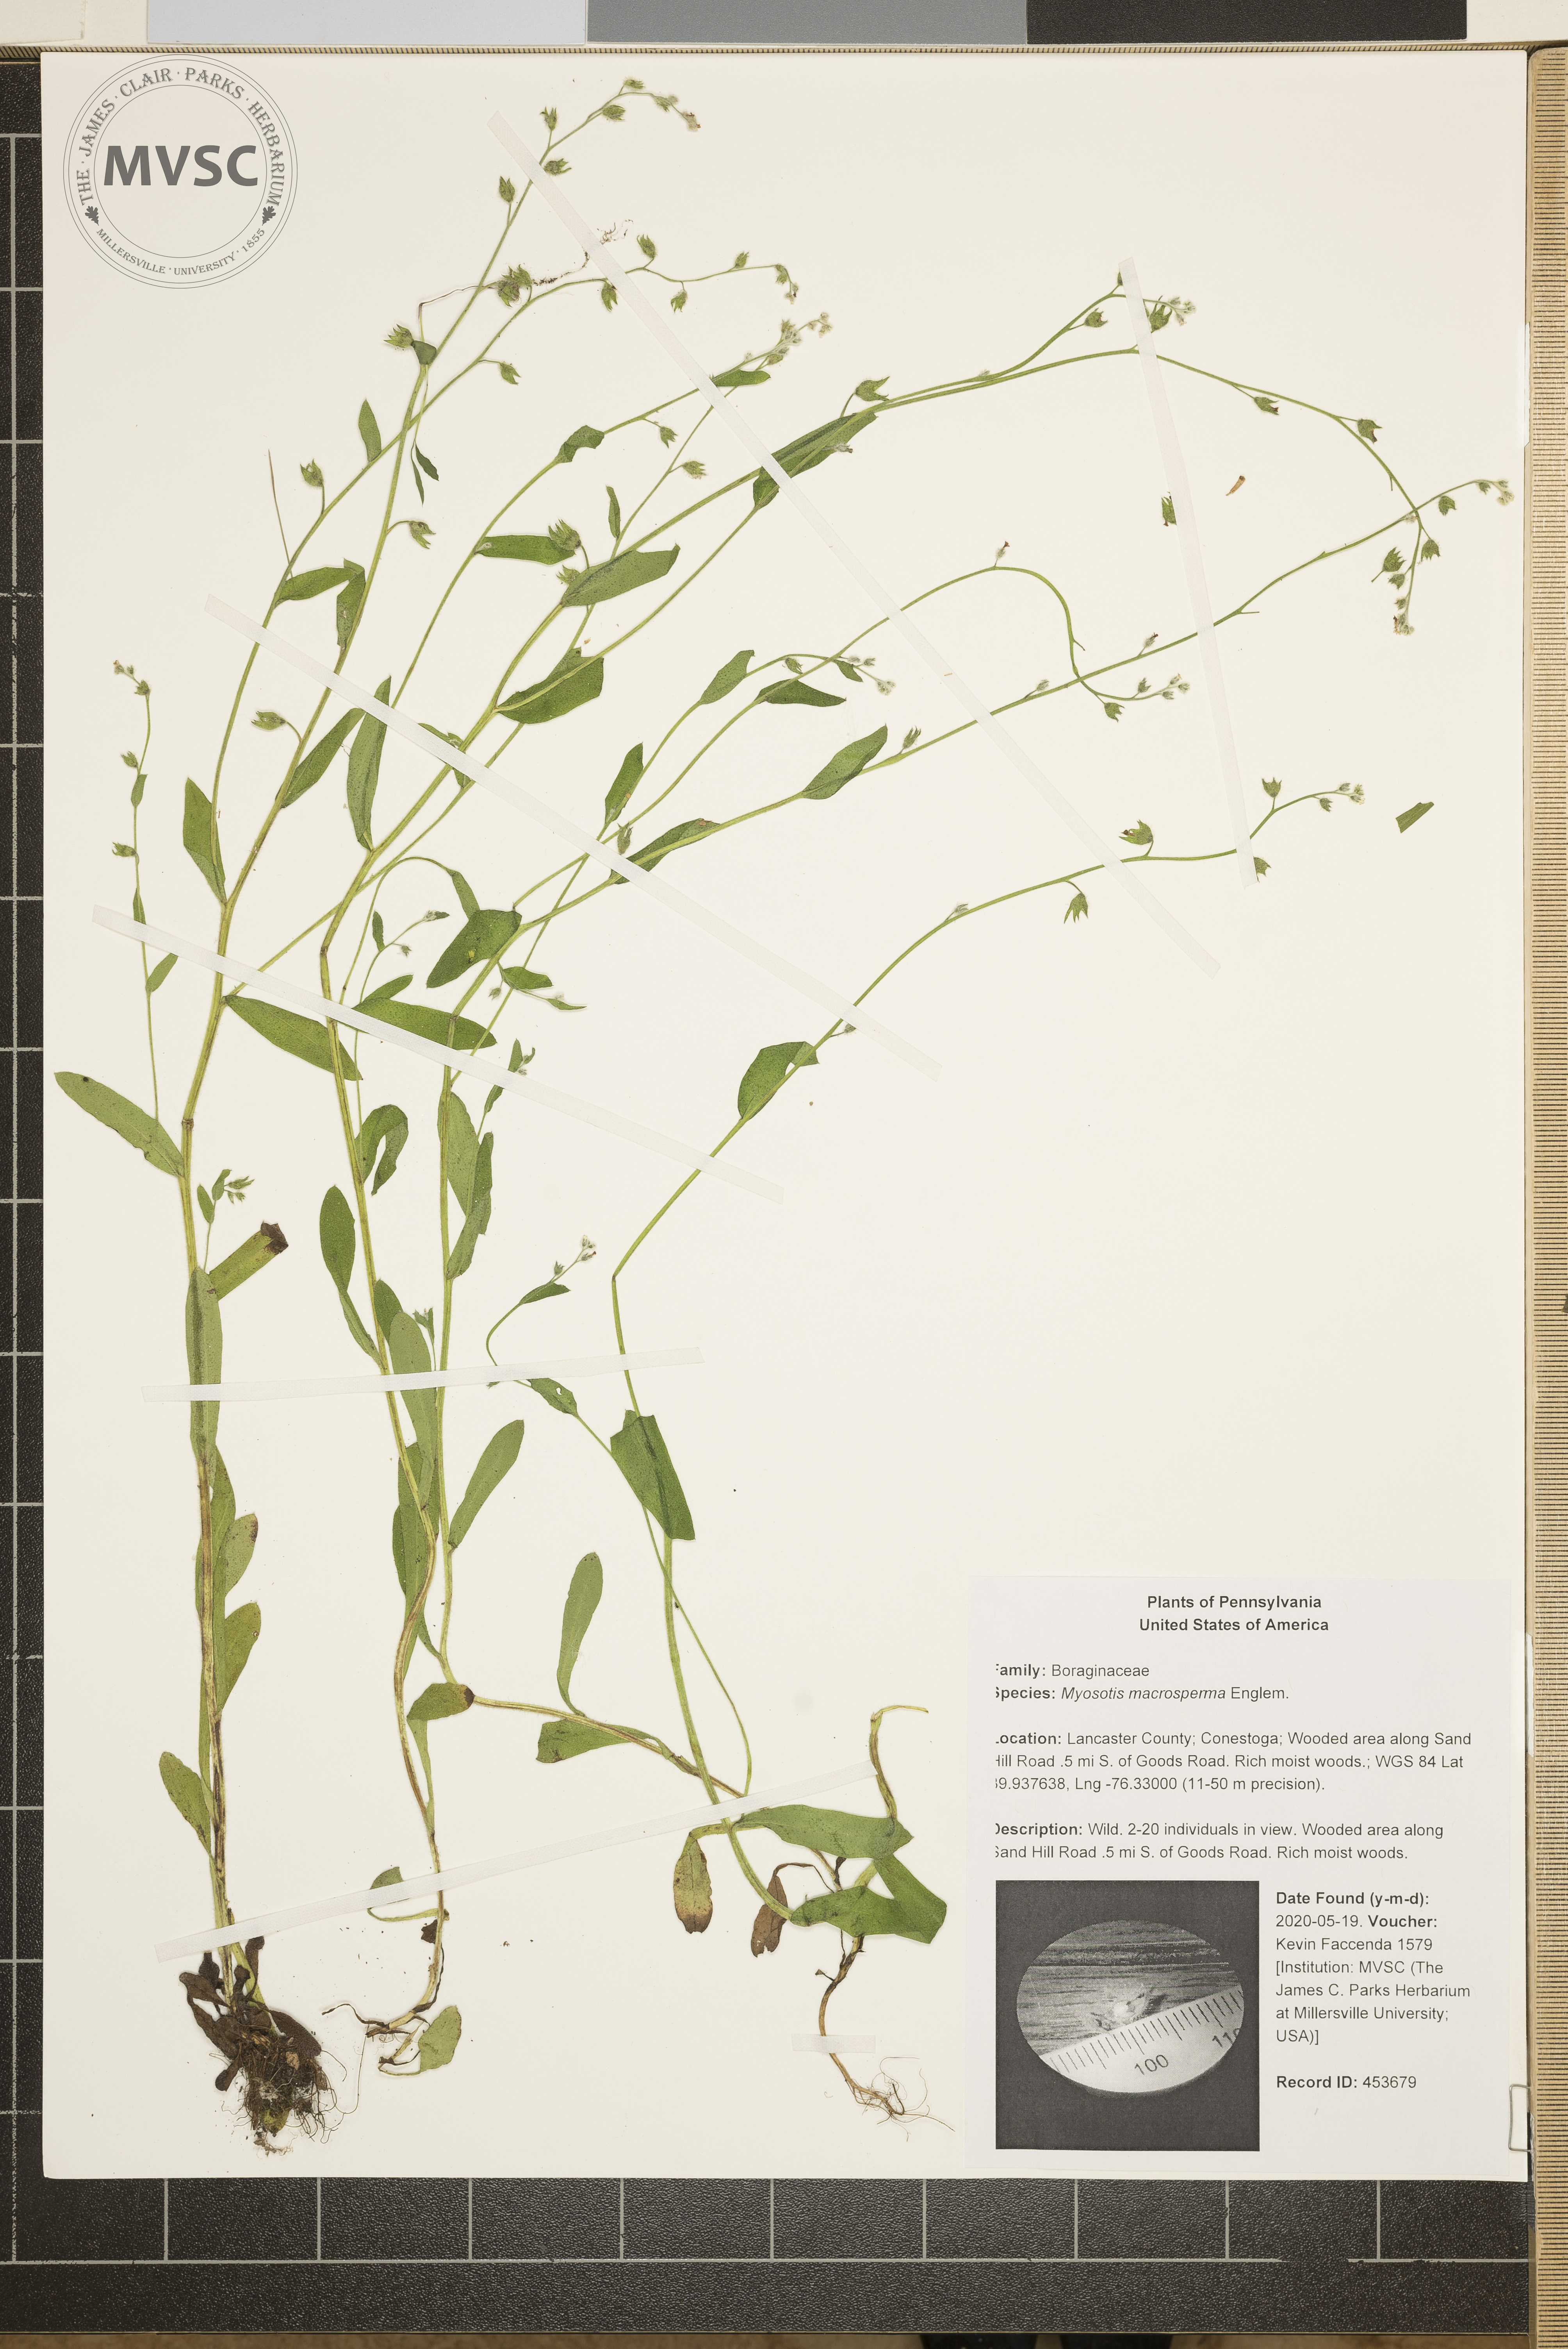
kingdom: Plantae
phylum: Tracheophyta
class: Magnoliopsida
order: Boraginales
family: Boraginaceae
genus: Myosotis
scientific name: Myosotis macrosperma
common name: Large-seed forget-me-not
